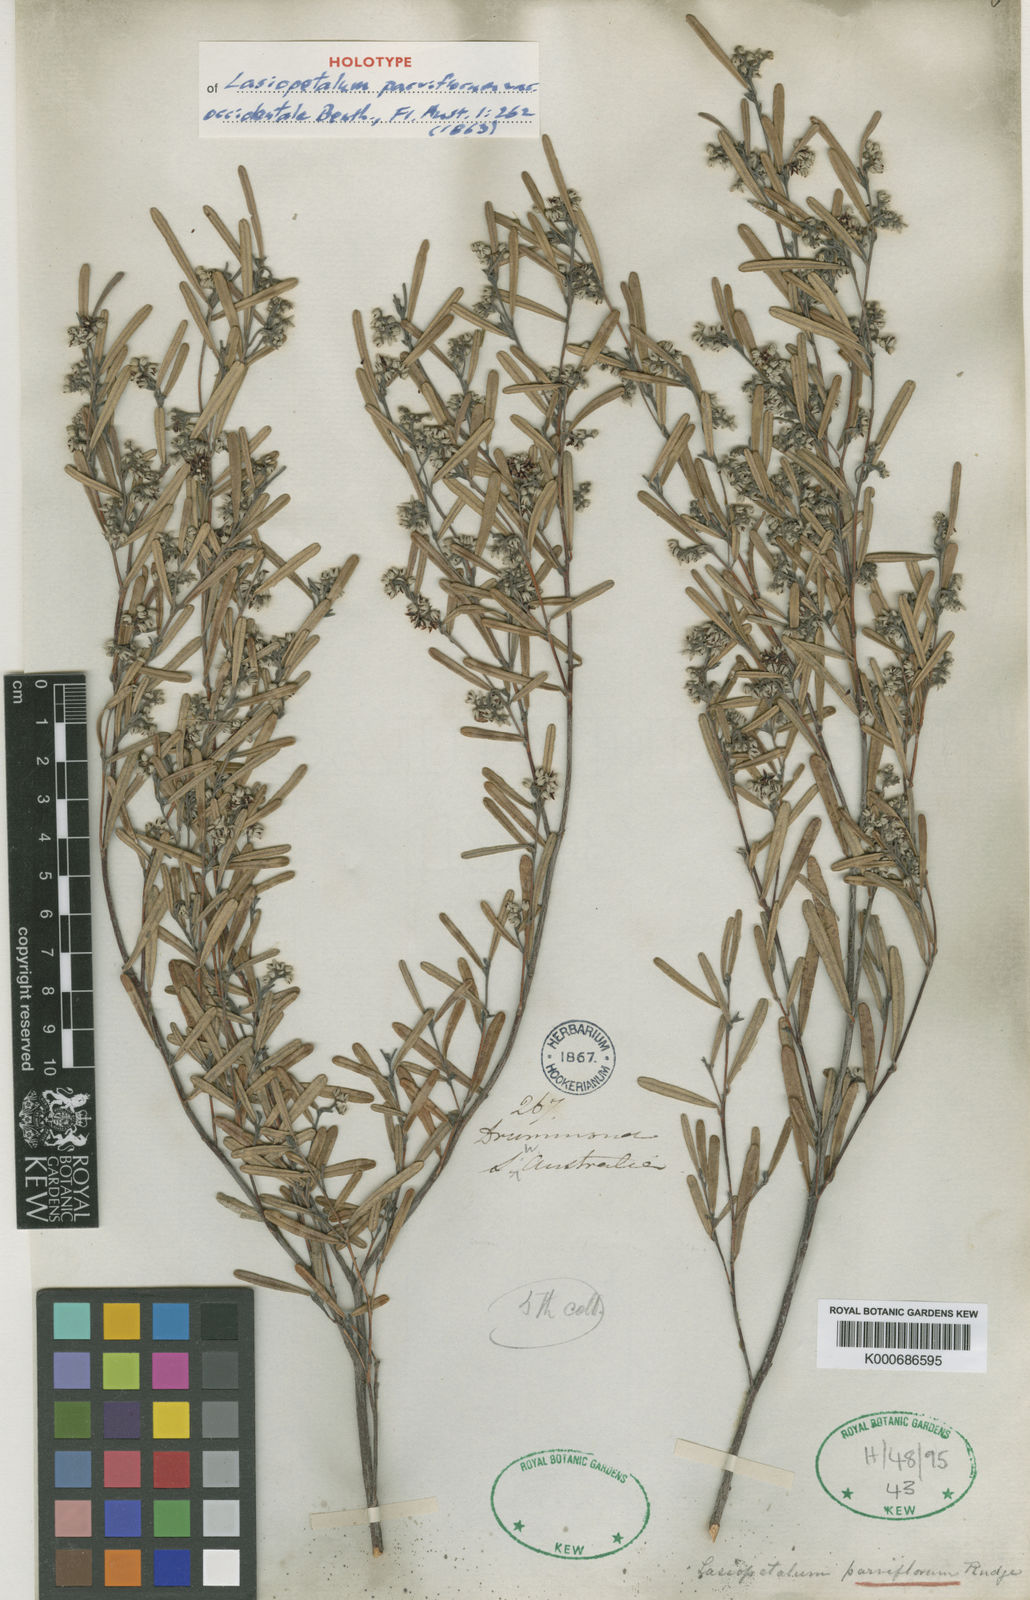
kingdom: Plantae
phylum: Tracheophyta
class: Magnoliopsida
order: Malvales
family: Malvaceae
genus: Lasiopetalum
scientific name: Lasiopetalum parviflorum
